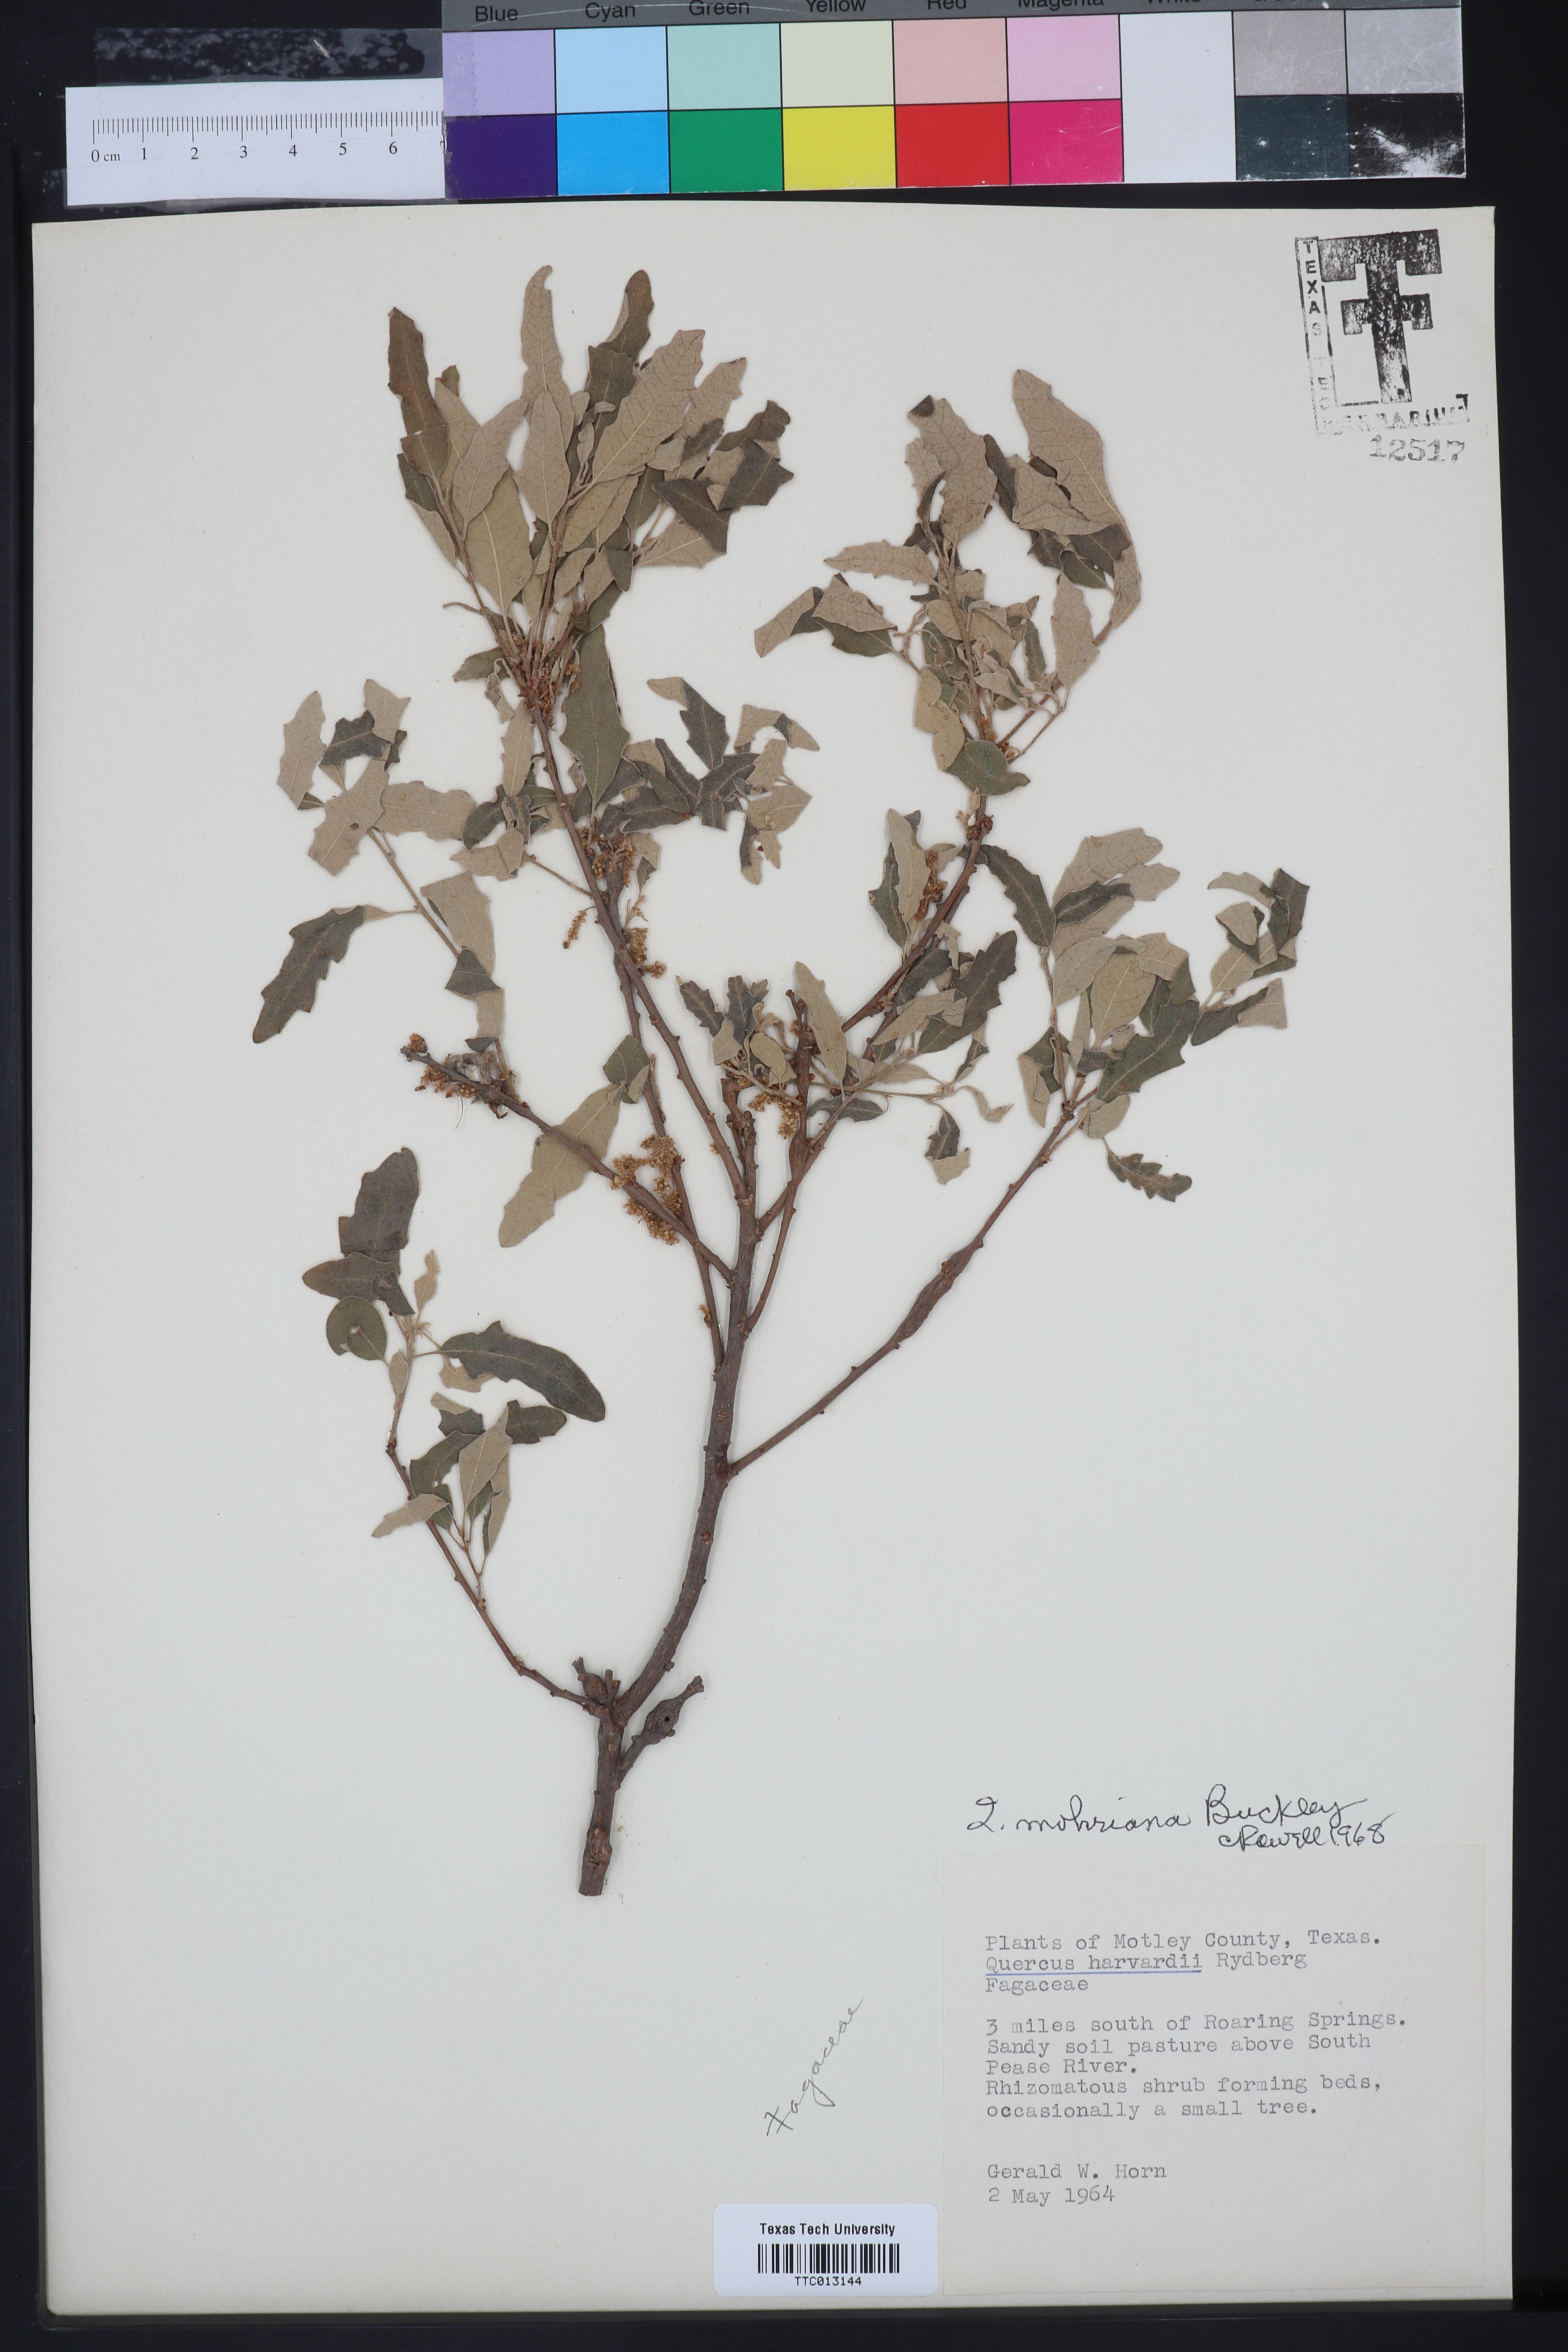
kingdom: Plantae
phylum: Tracheophyta
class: Magnoliopsida
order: Fagales
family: Fagaceae
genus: Quercus
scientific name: Quercus mohriana
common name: Mohr oak
